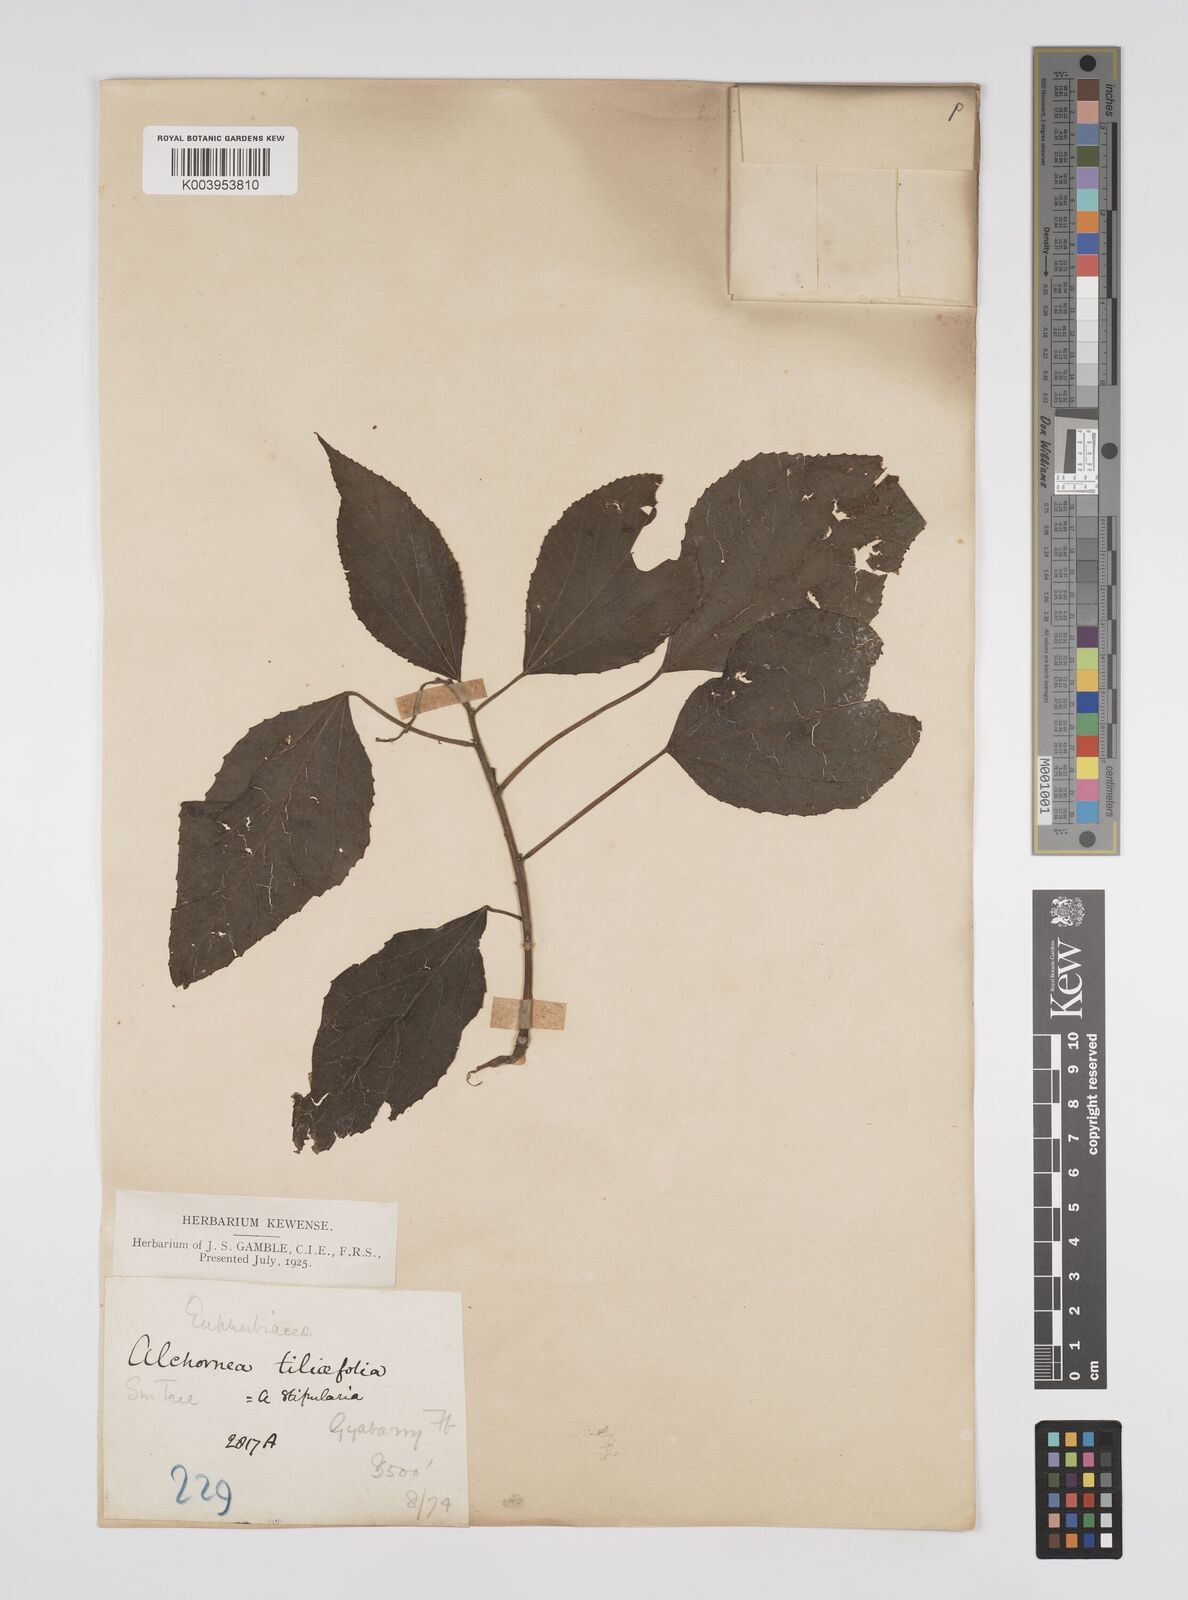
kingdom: Plantae
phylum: Tracheophyta
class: Magnoliopsida
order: Malpighiales
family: Euphorbiaceae
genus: Alchornea
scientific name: Alchornea tiliifolia
